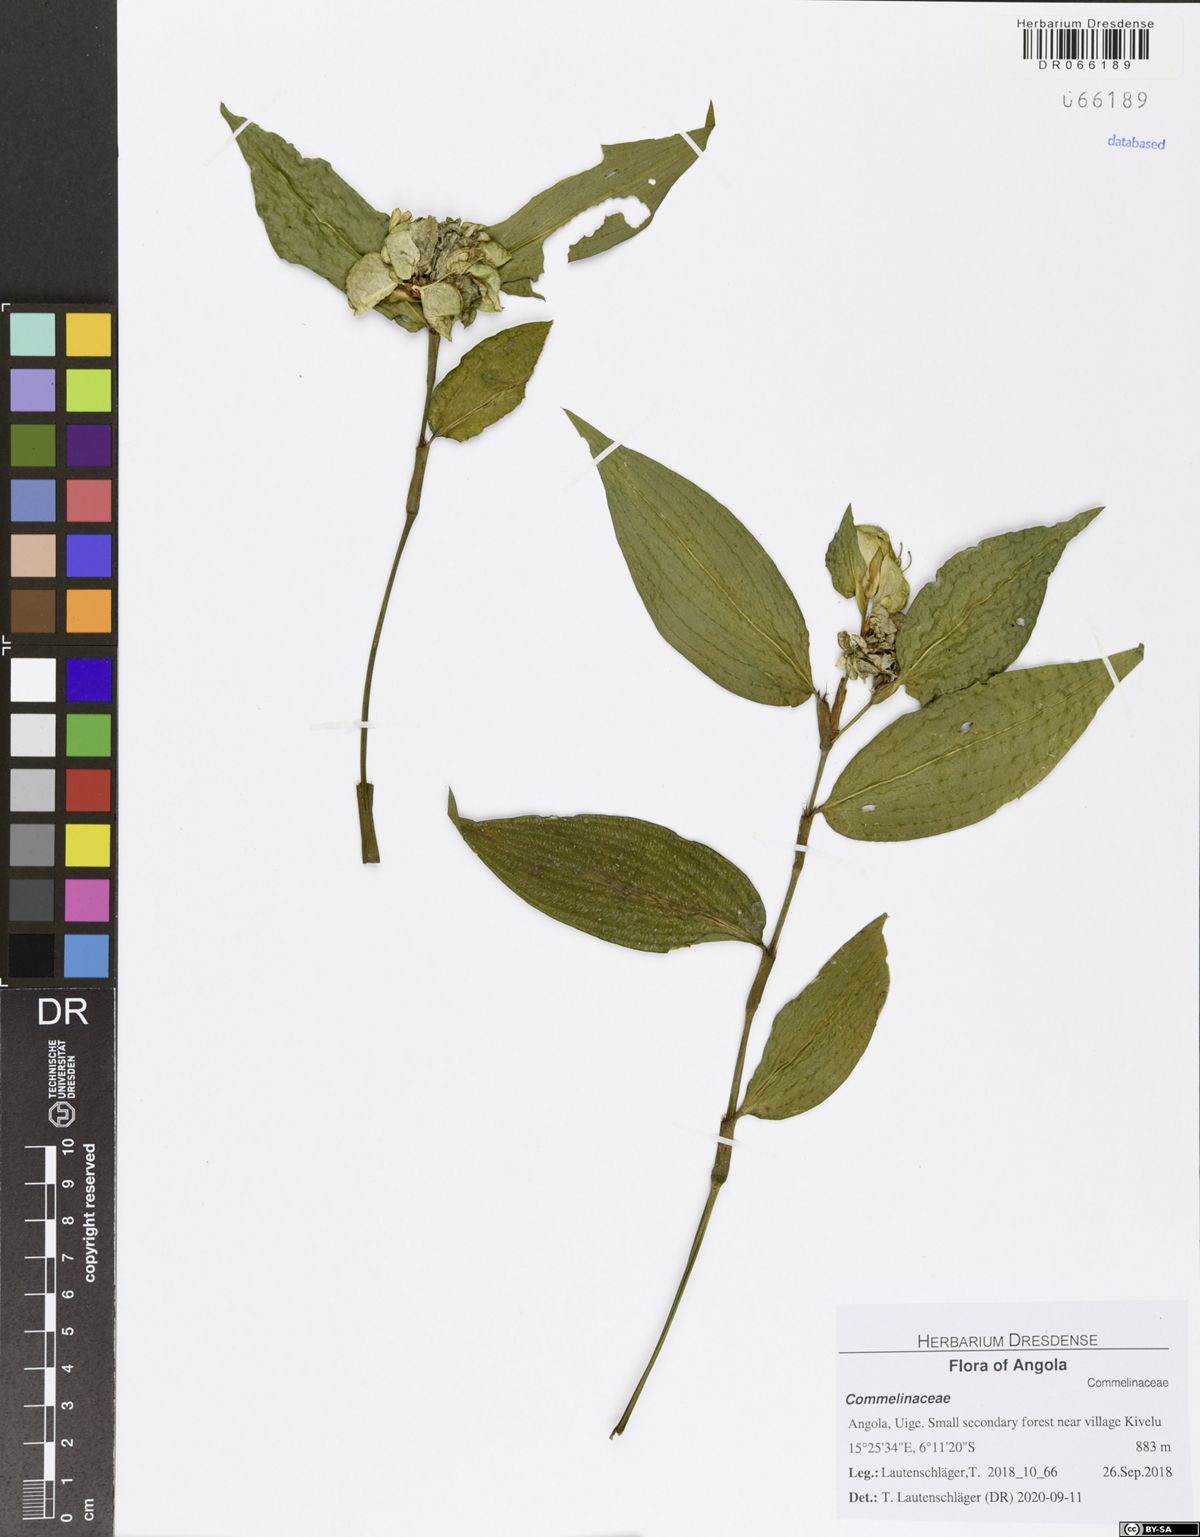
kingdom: Plantae
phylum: Tracheophyta
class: Liliopsida
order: Commelinales
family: Commelinaceae
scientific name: Commelinaceae
